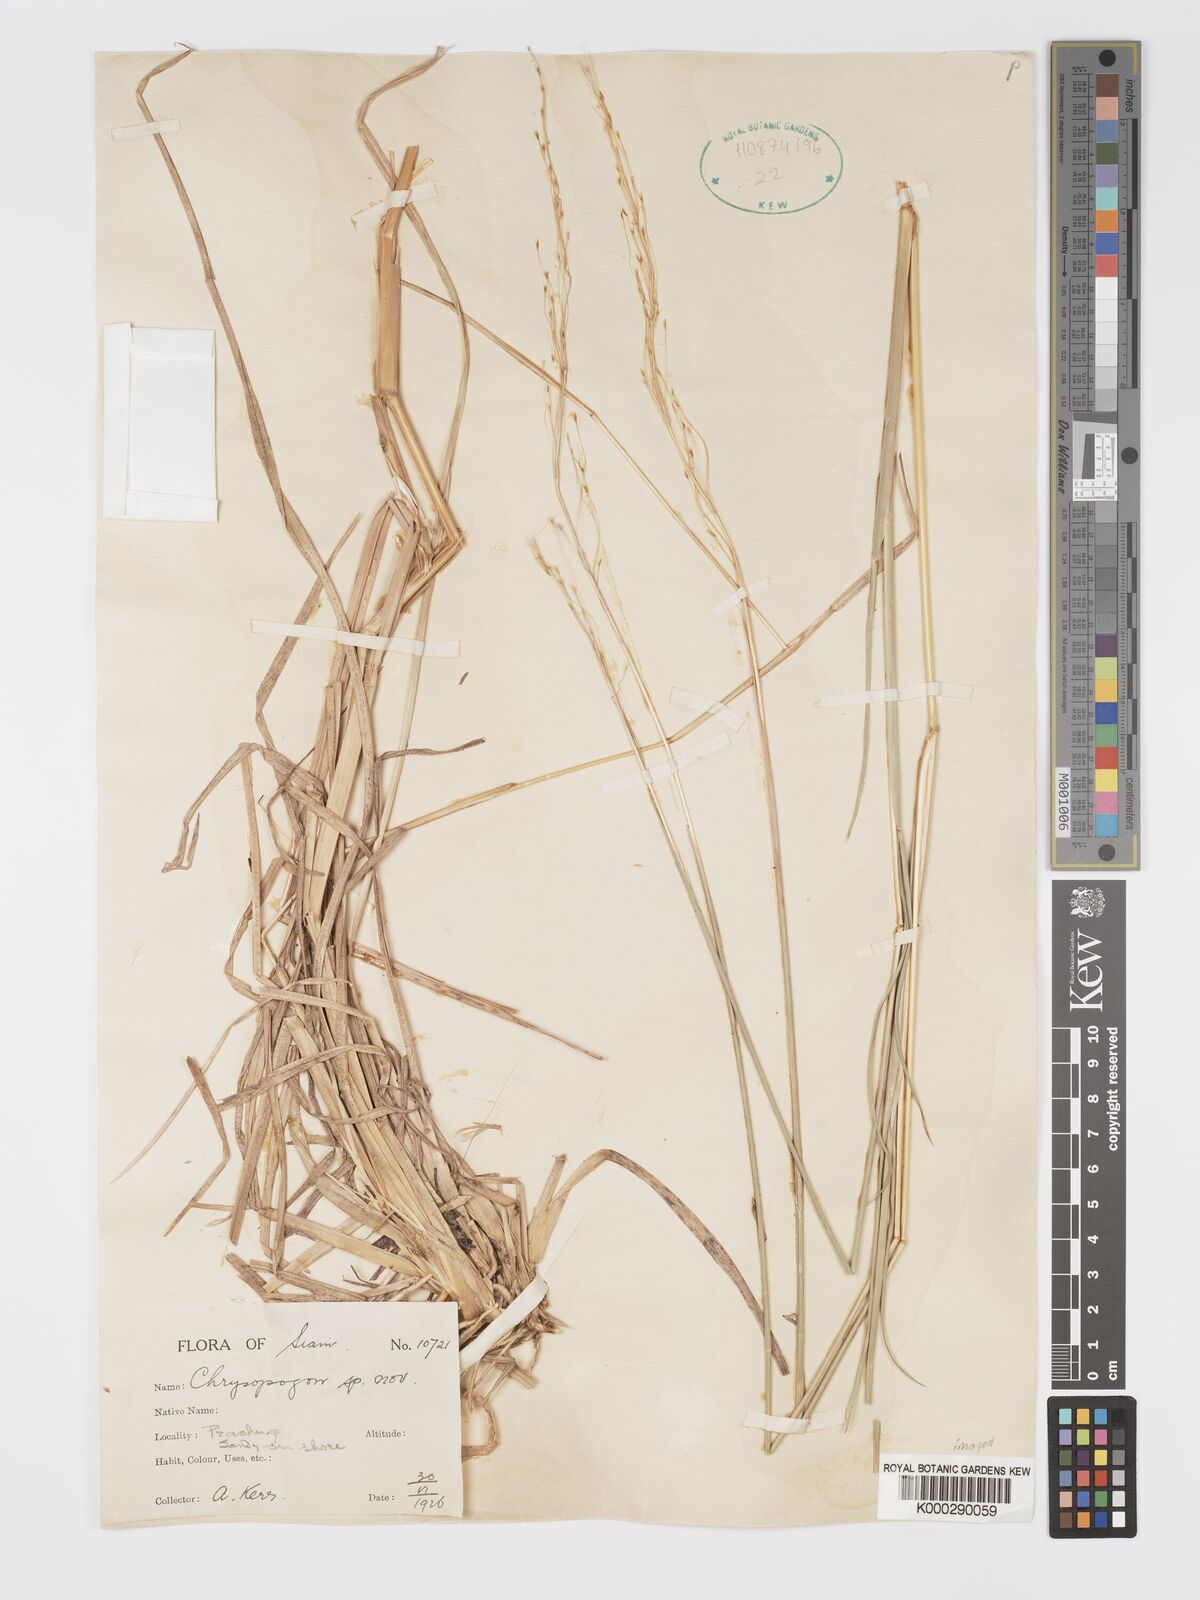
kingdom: Plantae
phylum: Tracheophyta
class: Liliopsida
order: Poales
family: Poaceae
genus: Chrysopogon
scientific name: Chrysopogon orientalis
